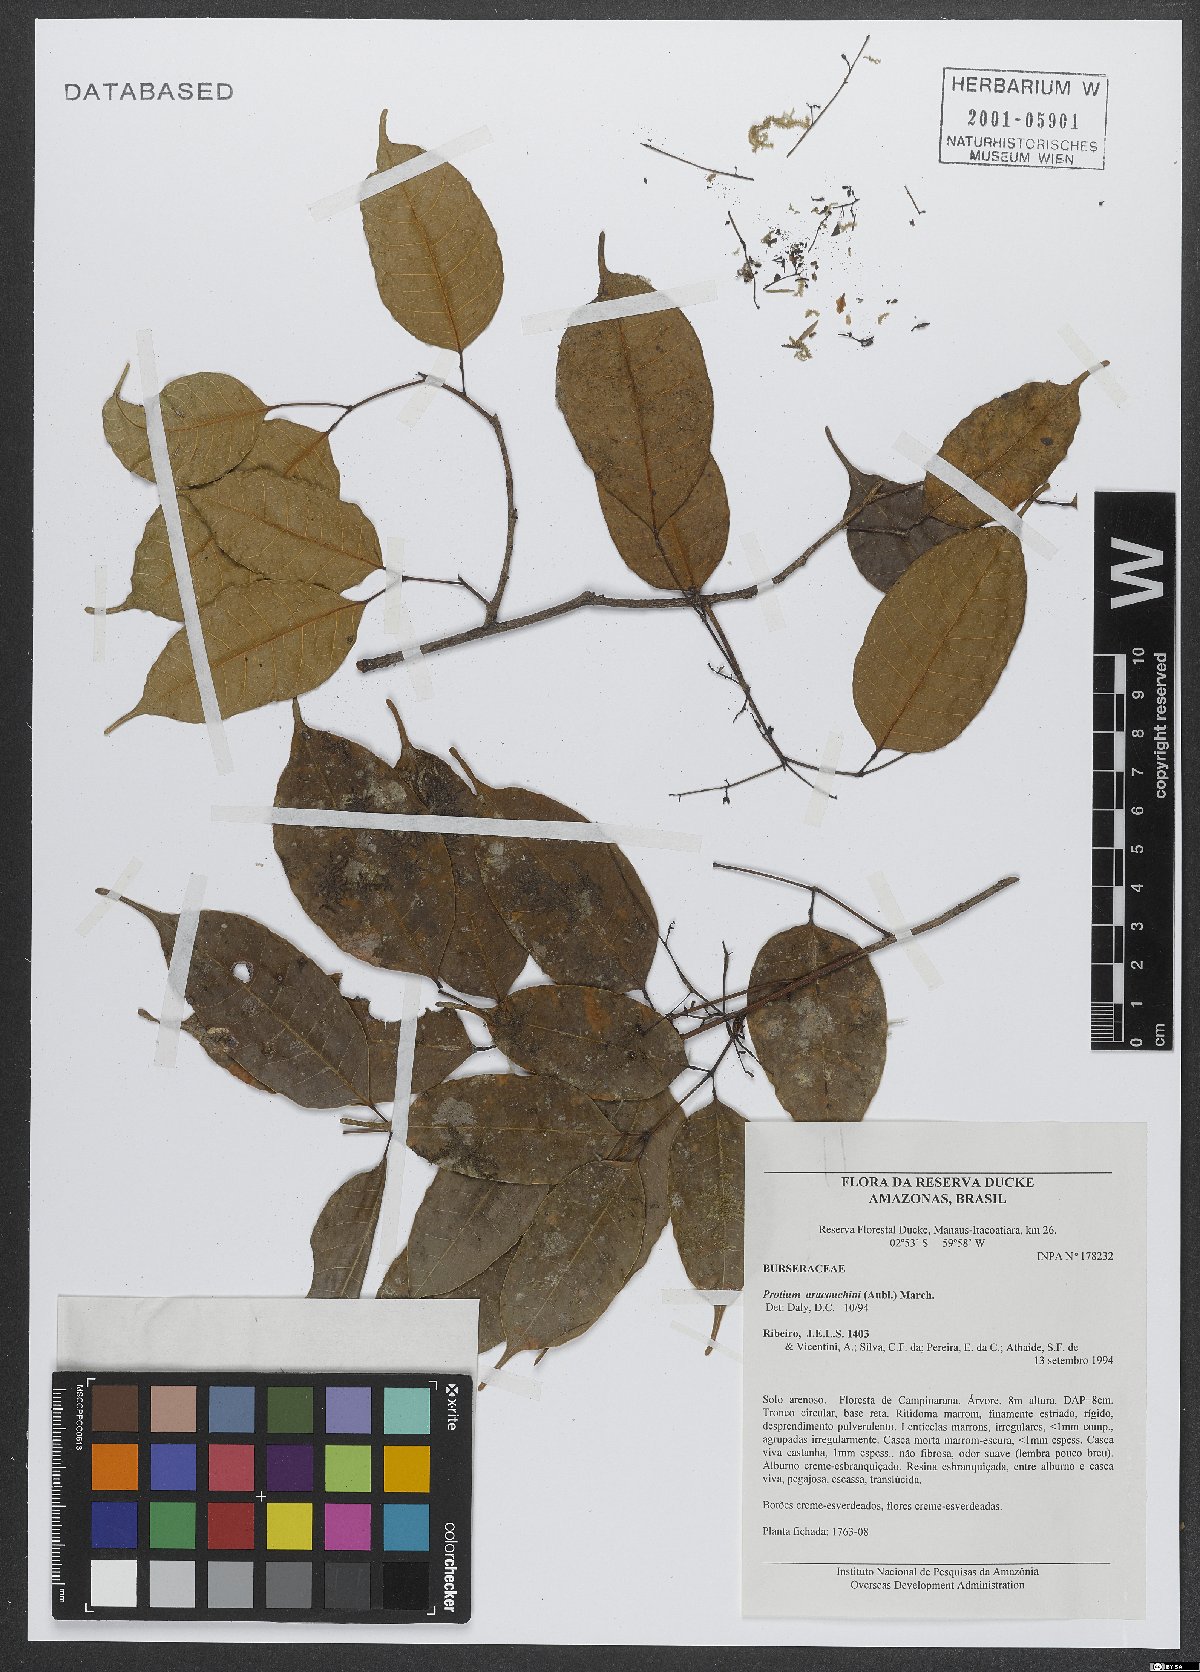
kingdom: Plantae
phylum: Tracheophyta
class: Magnoliopsida
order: Sapindales
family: Burseraceae
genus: Protium
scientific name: Protium calanense
